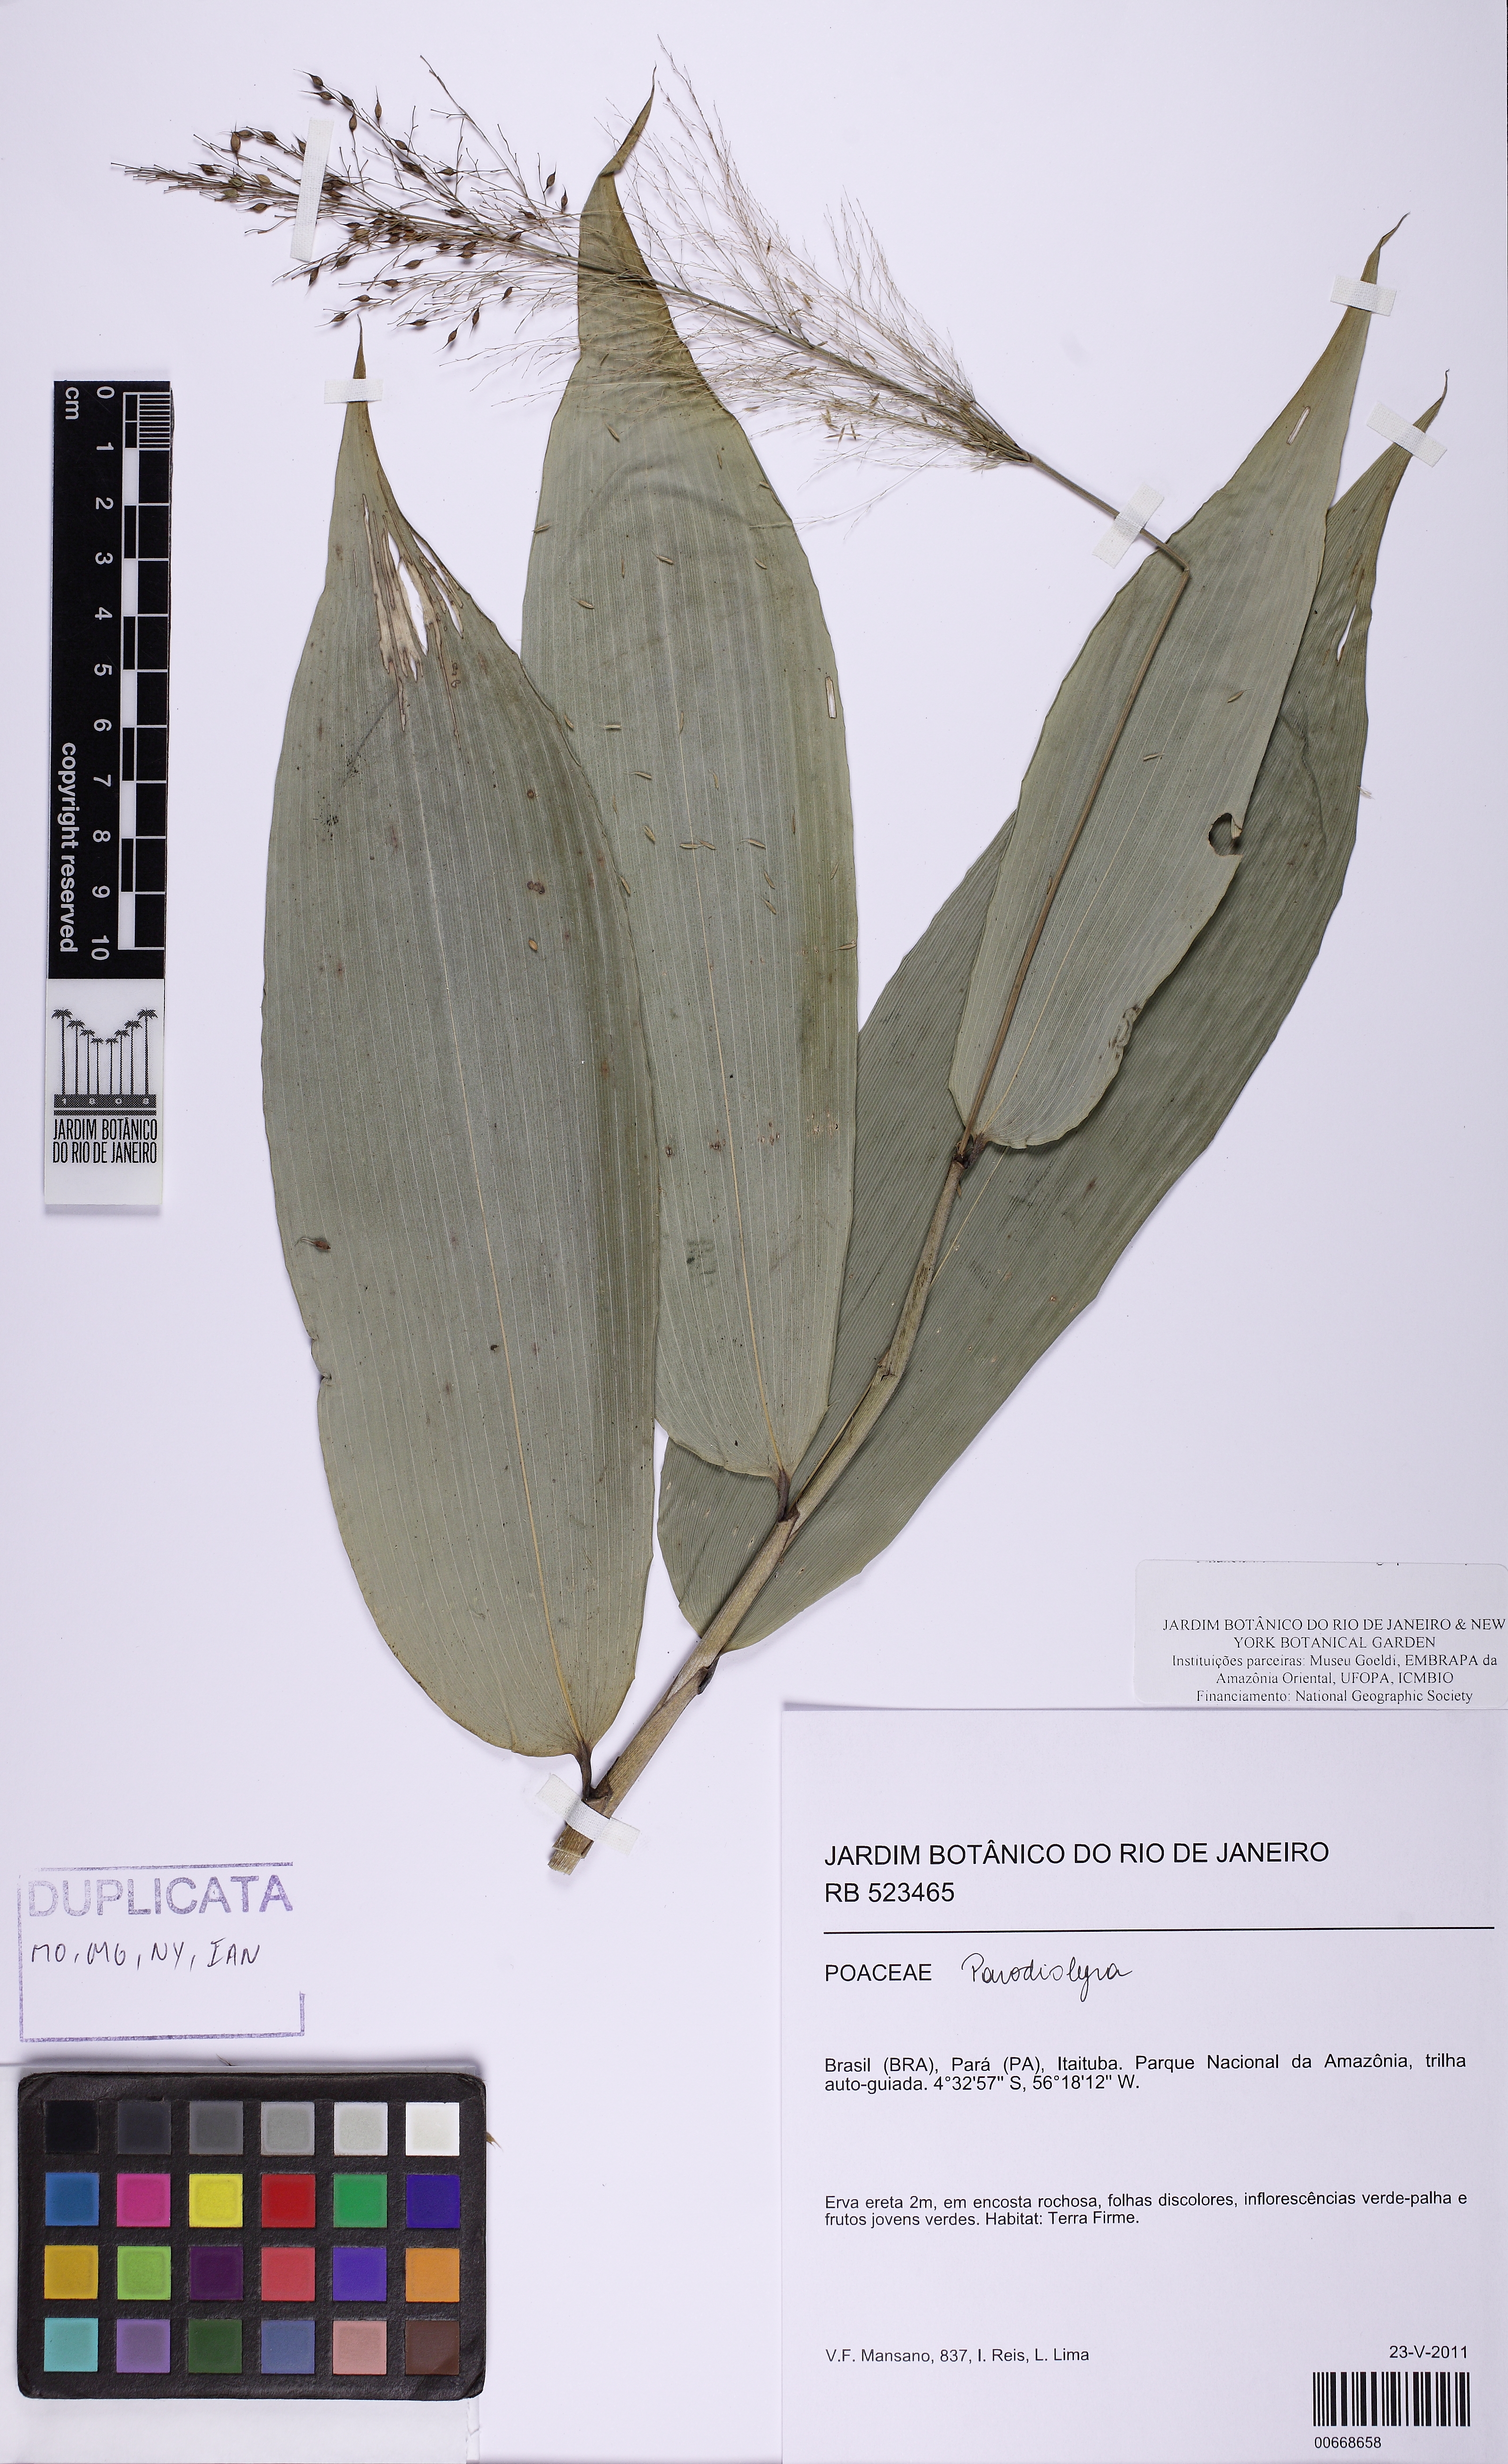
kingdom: Plantae
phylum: Tracheophyta
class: Liliopsida
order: Poales
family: Poaceae
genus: Parodiolyra
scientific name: Parodiolyra
